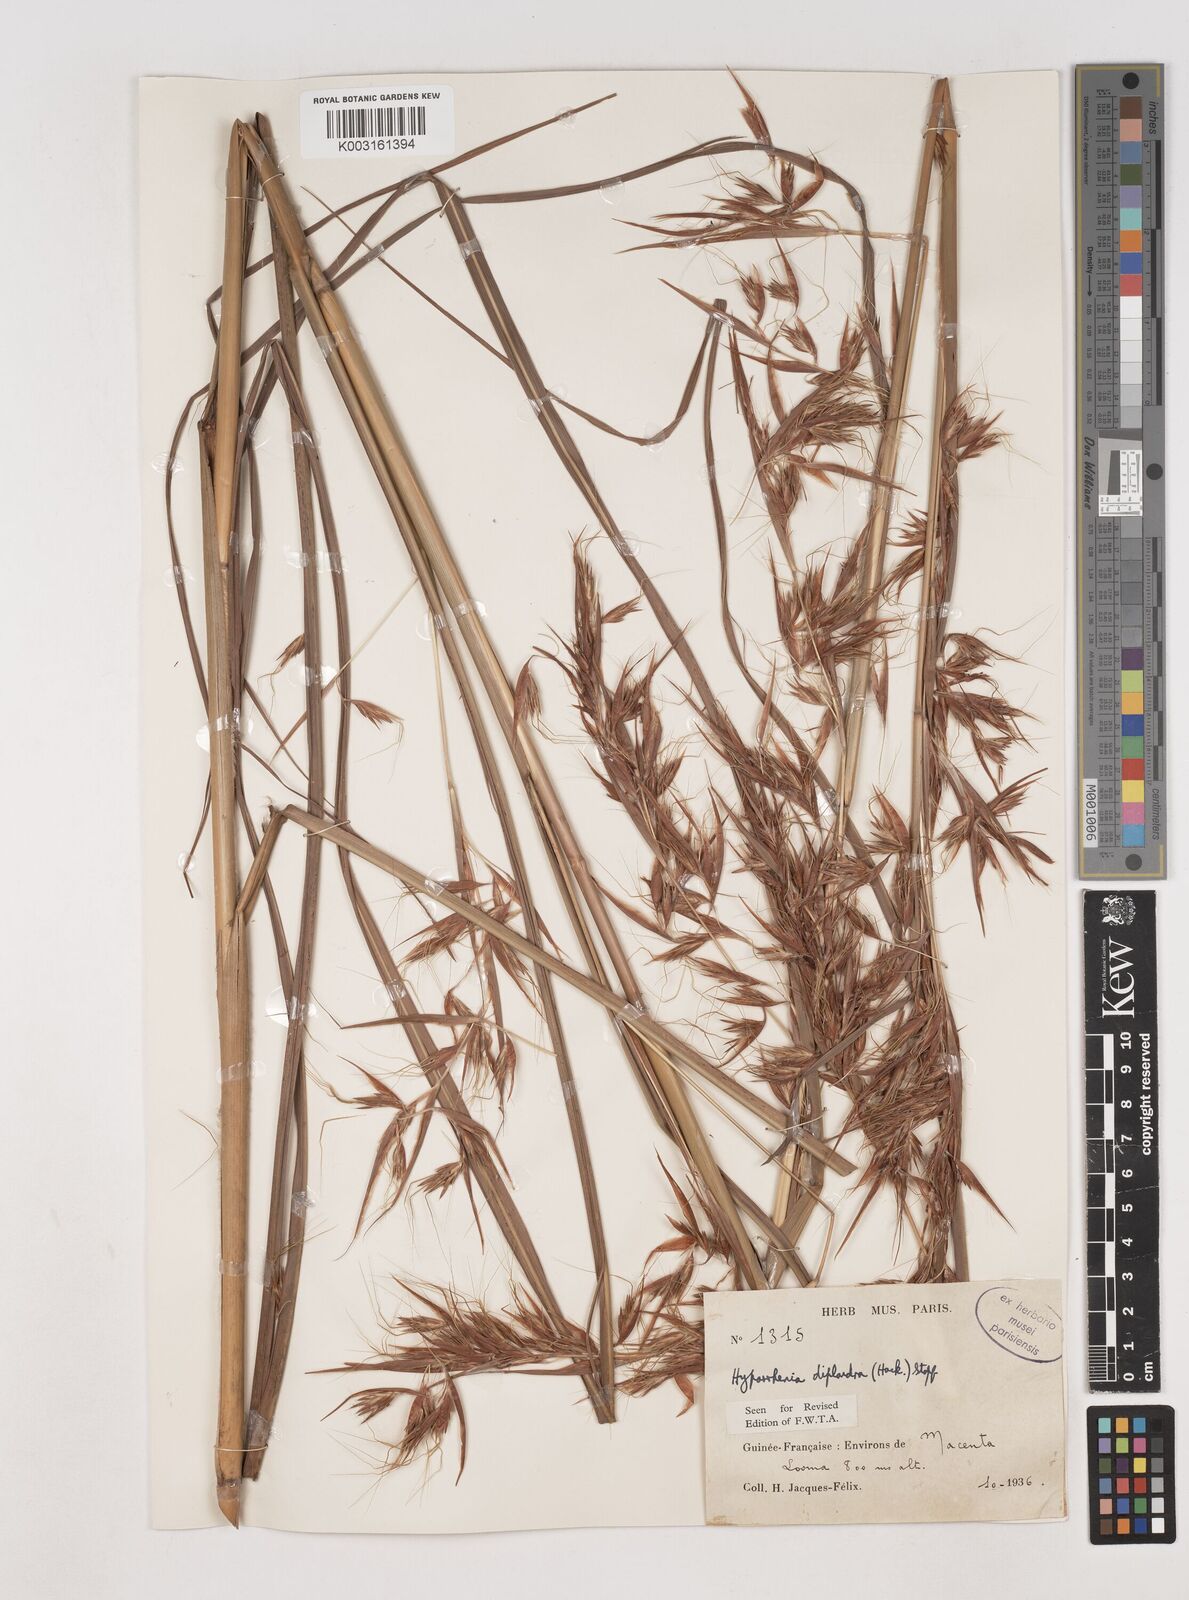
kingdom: Plantae
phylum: Tracheophyta
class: Liliopsida
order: Poales
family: Poaceae
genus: Hyparrhenia
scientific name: Hyparrhenia diplandra
